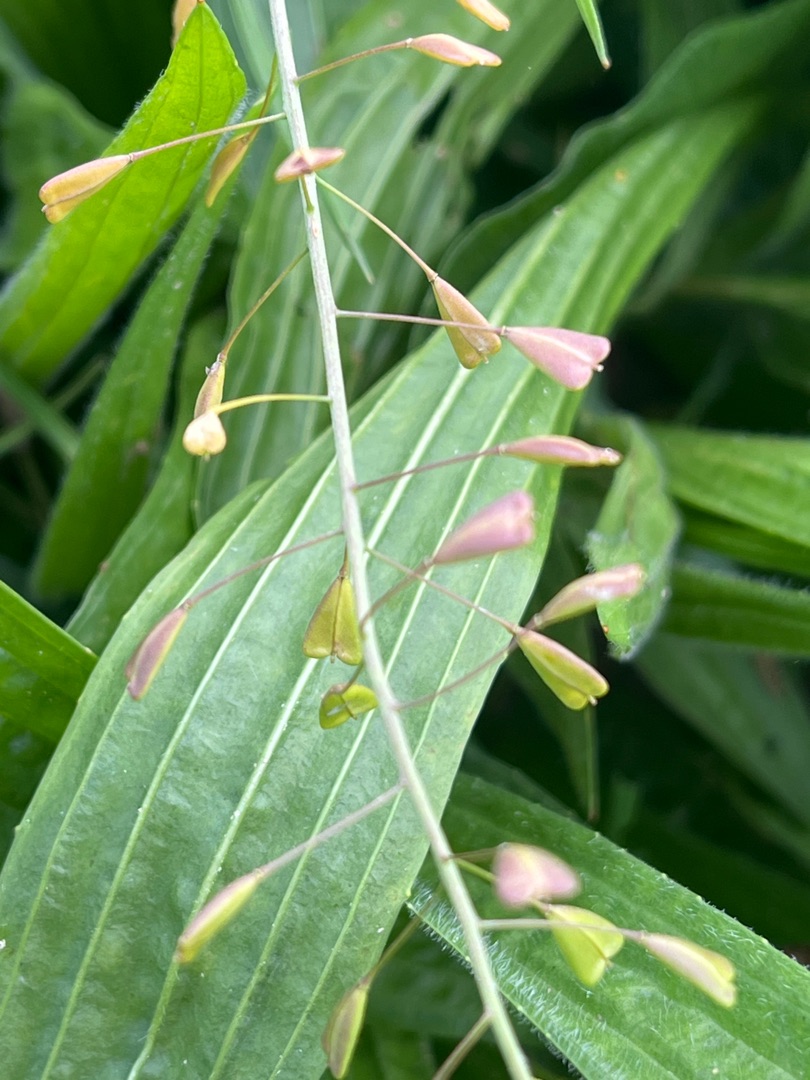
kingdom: Plantae
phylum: Tracheophyta
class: Magnoliopsida
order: Brassicales
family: Brassicaceae
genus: Capsella
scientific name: Capsella bursa-pastoris
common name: Hyrdetaske
